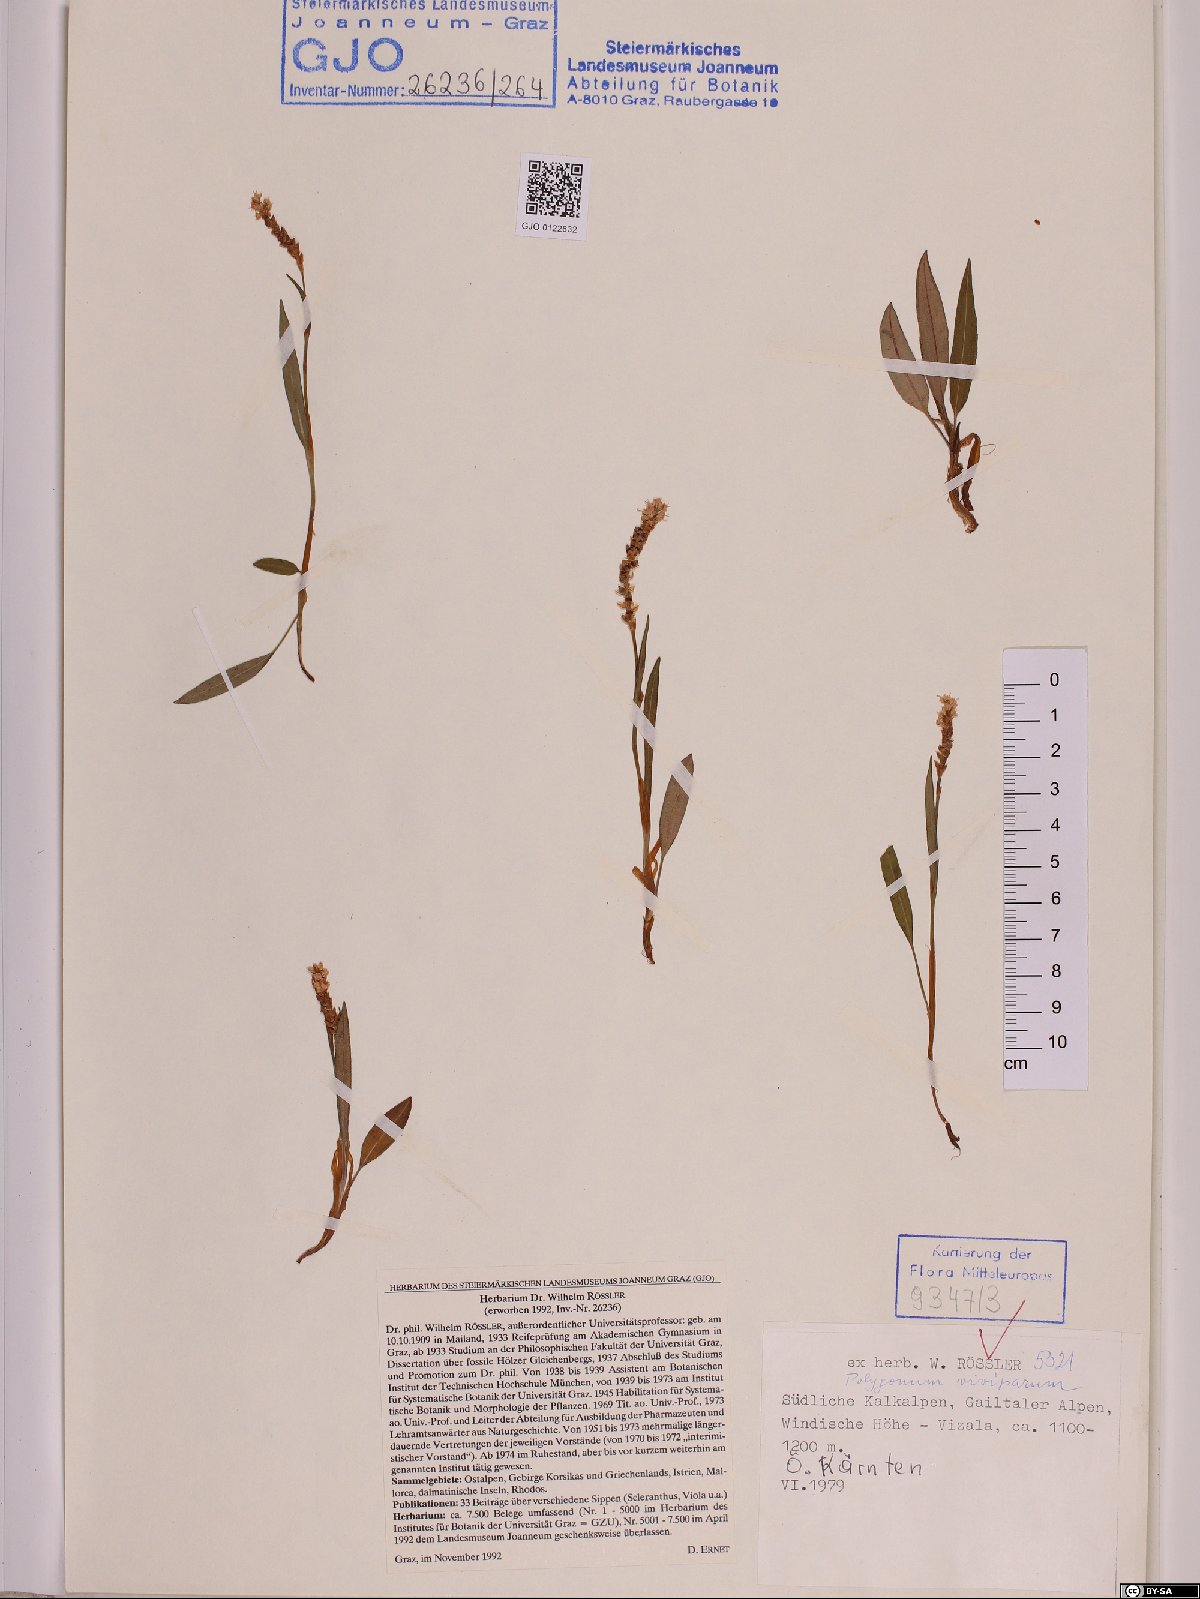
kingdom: Plantae
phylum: Tracheophyta
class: Magnoliopsida
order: Caryophyllales
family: Polygonaceae
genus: Bistorta
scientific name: Bistorta vivipara
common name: Alpine bistort
